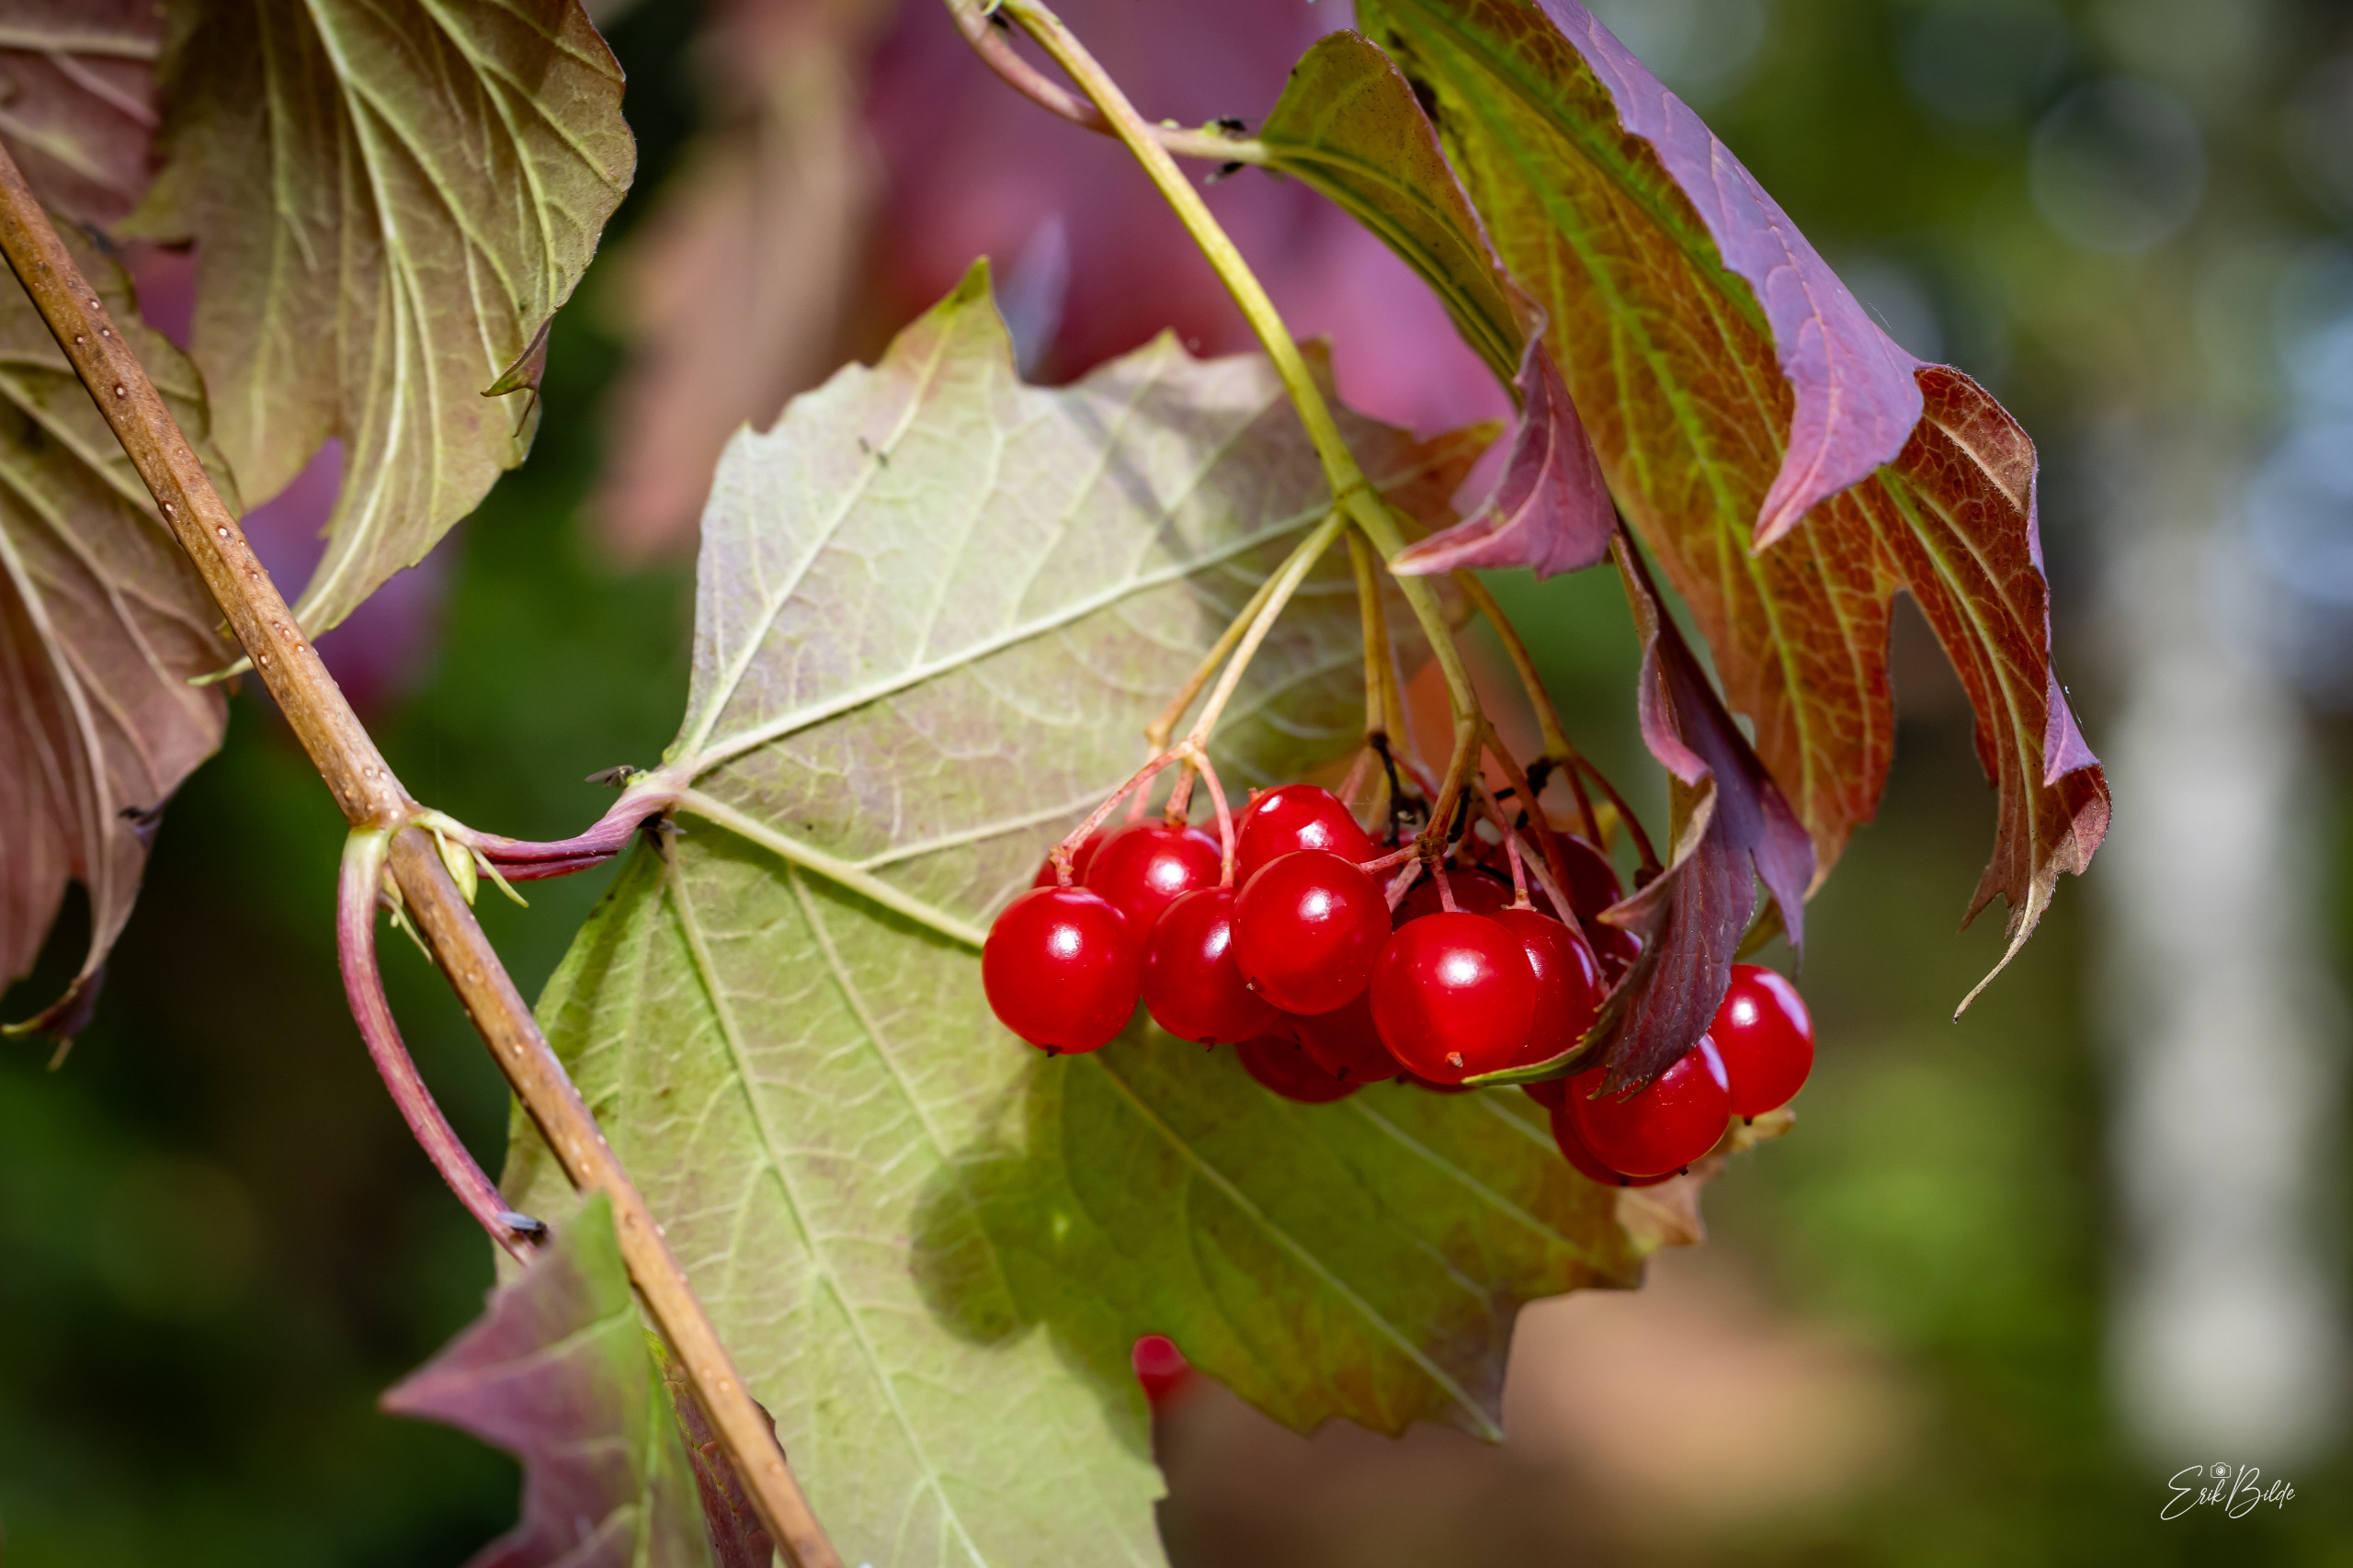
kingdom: Plantae
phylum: Tracheophyta
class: Magnoliopsida
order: Dipsacales
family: Viburnaceae
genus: Viburnum
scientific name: Viburnum opulus
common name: Kvalkved
